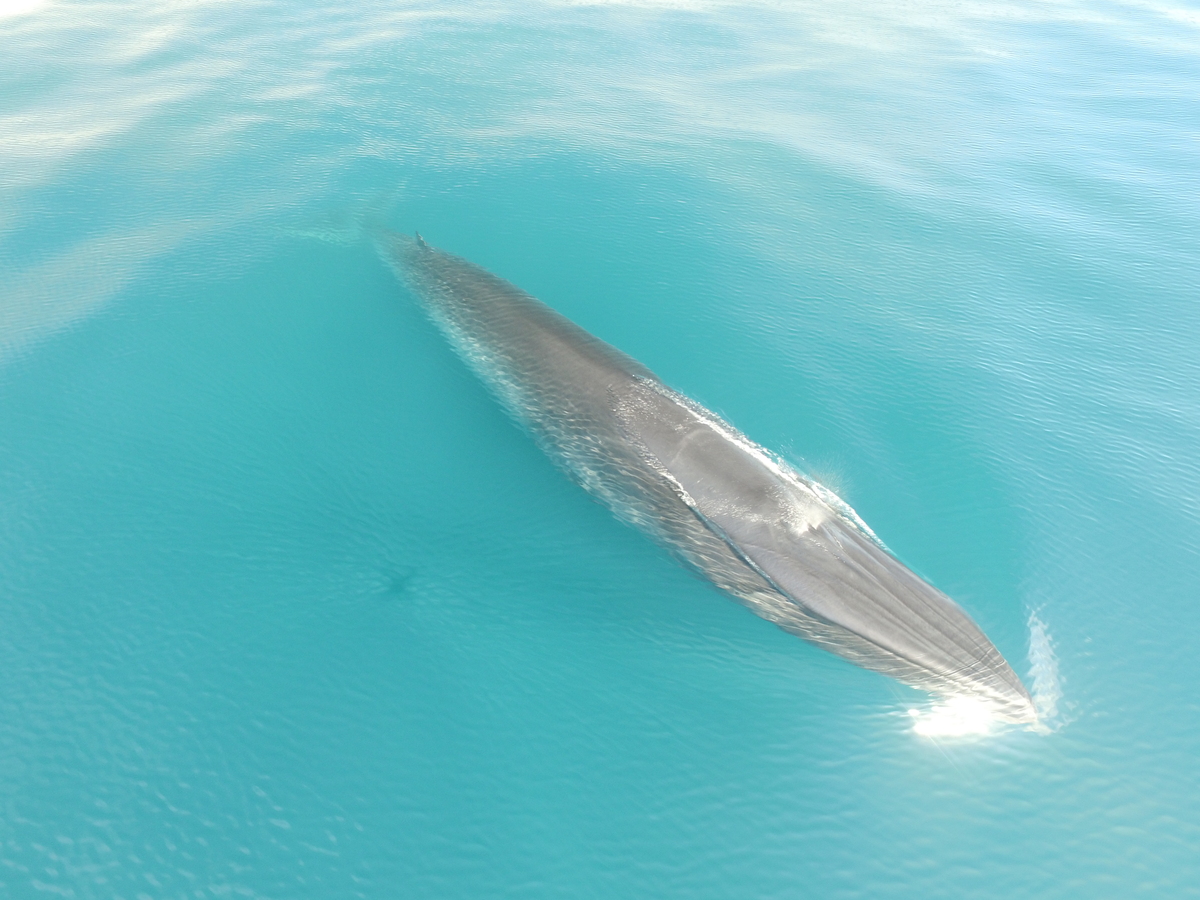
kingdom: Animalia
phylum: Chordata
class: Mammalia
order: Cetacea
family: Balaenopteridae
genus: Balaenoptera
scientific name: Balaenoptera edeni
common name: Bryde's whale
